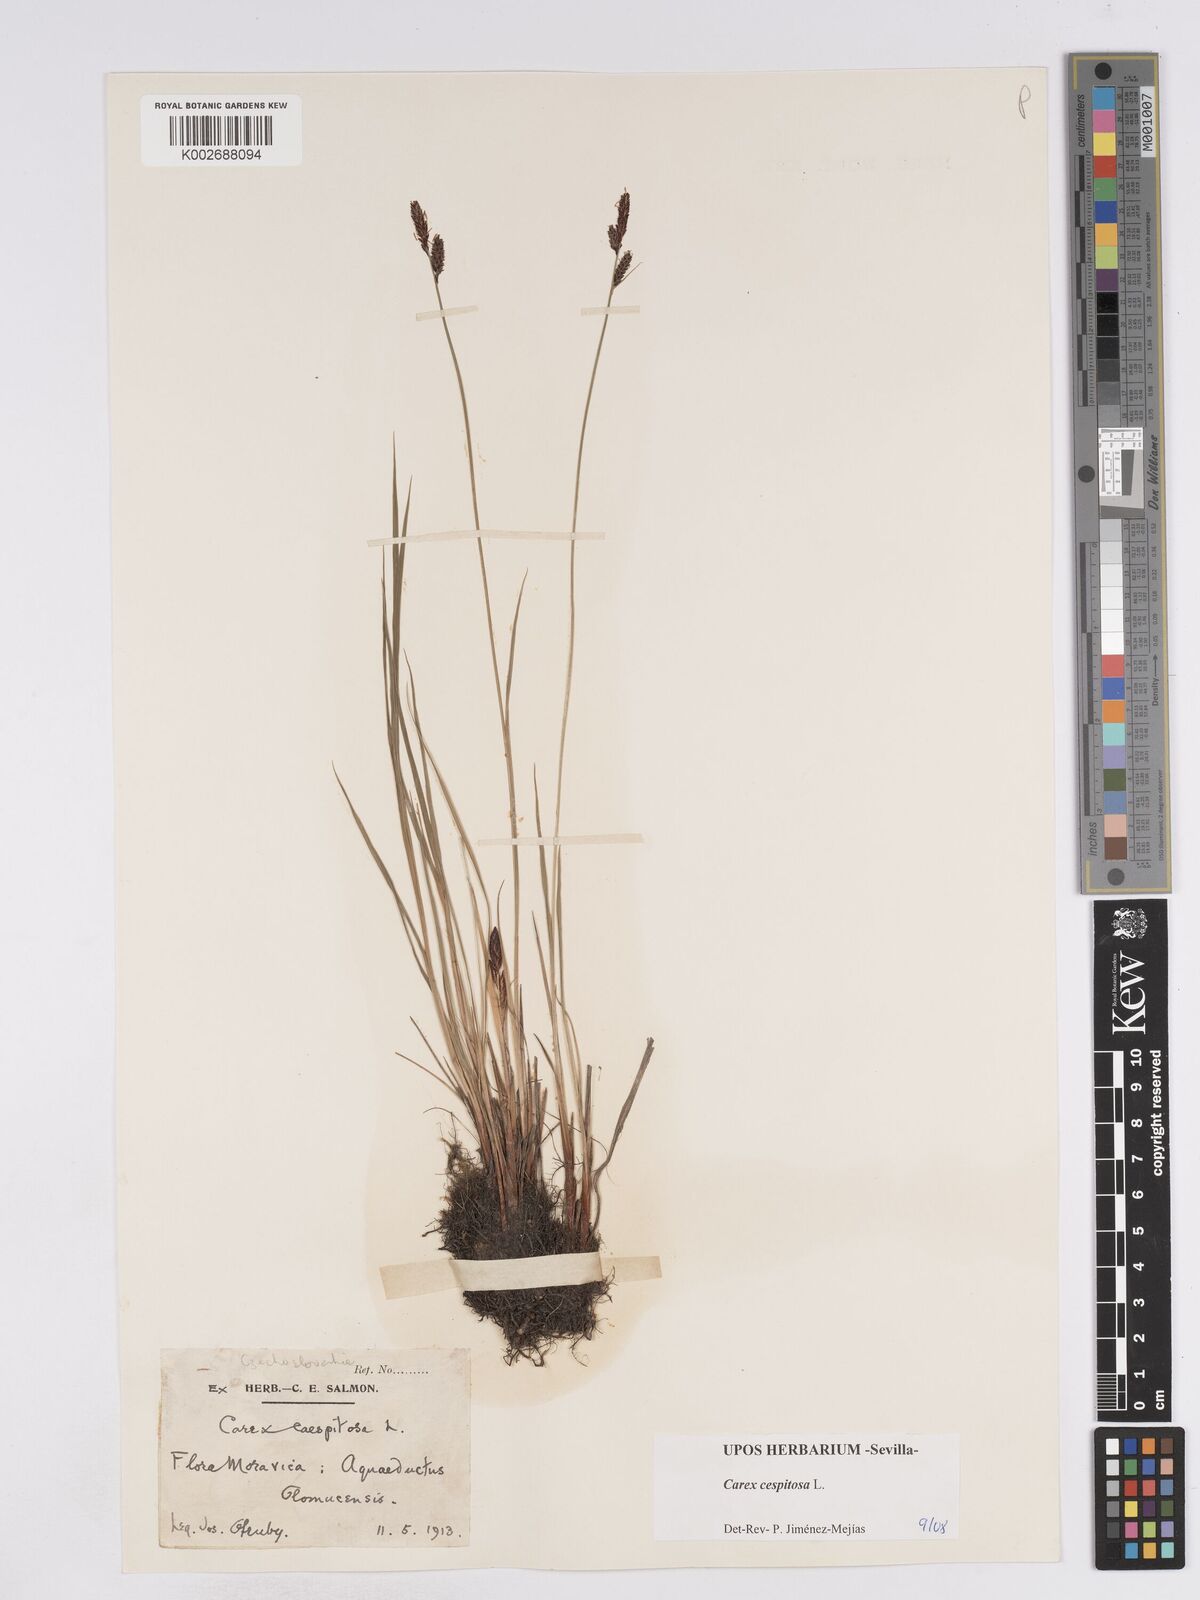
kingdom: Plantae
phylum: Tracheophyta
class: Liliopsida
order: Poales
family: Cyperaceae
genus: Carex
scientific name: Carex
